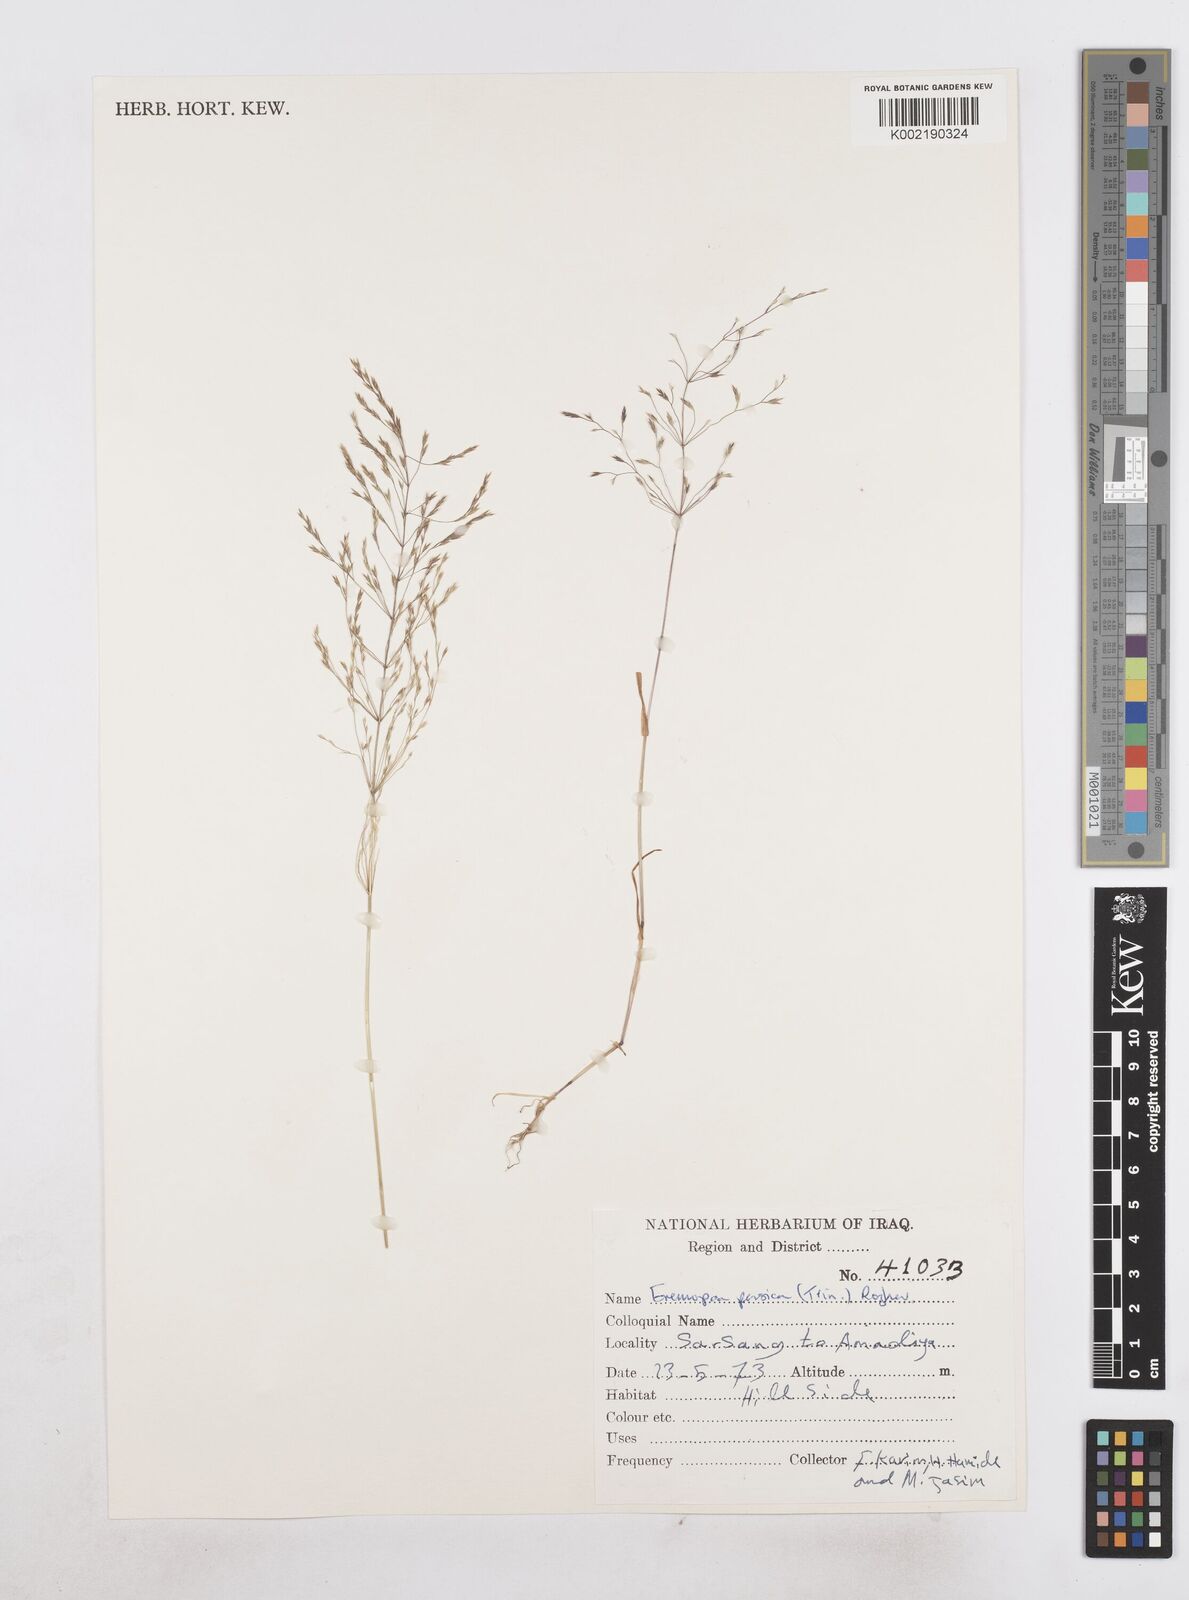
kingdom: Plantae
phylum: Tracheophyta
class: Liliopsida
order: Poales
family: Poaceae
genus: Poa
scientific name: Poa persica
